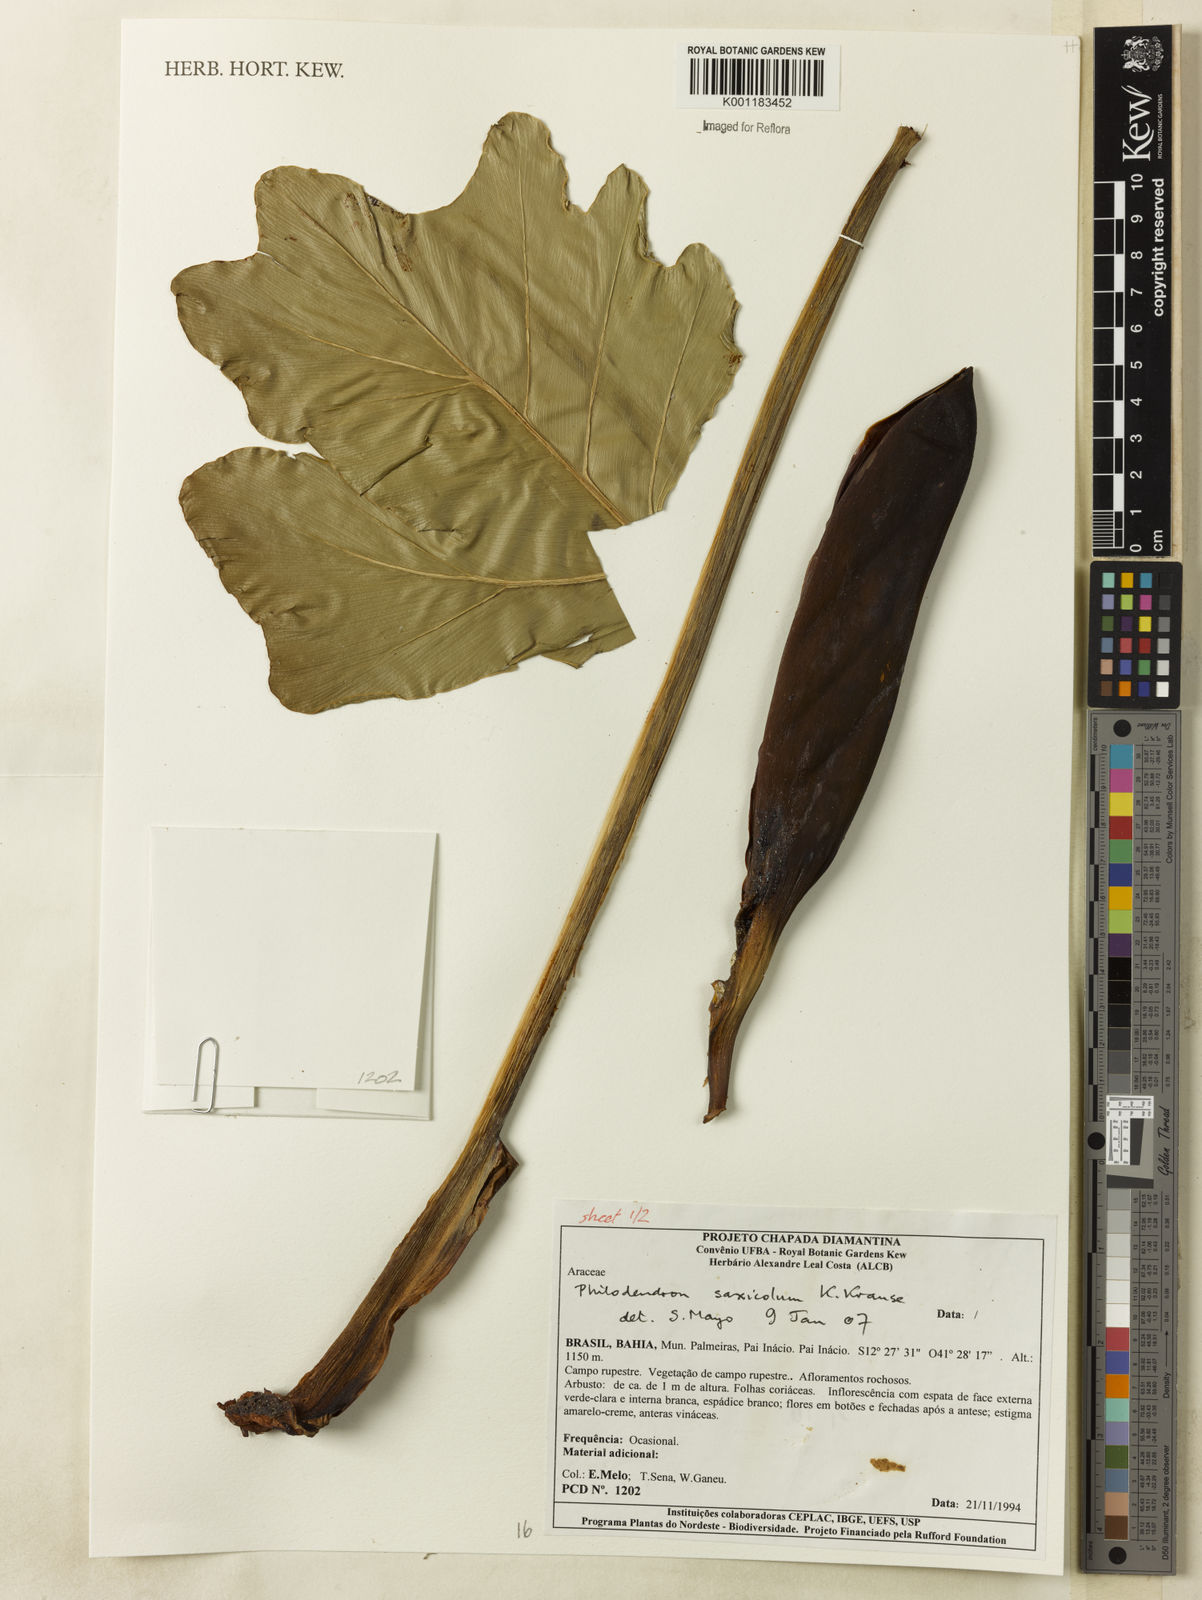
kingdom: Plantae
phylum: Tracheophyta
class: Liliopsida
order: Alismatales
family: Araceae
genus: Thaumatophyllum
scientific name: Thaumatophyllum saxicola
